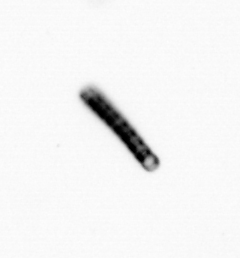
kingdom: Chromista
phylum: Ochrophyta
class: Bacillariophyceae
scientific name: Bacillariophyceae
